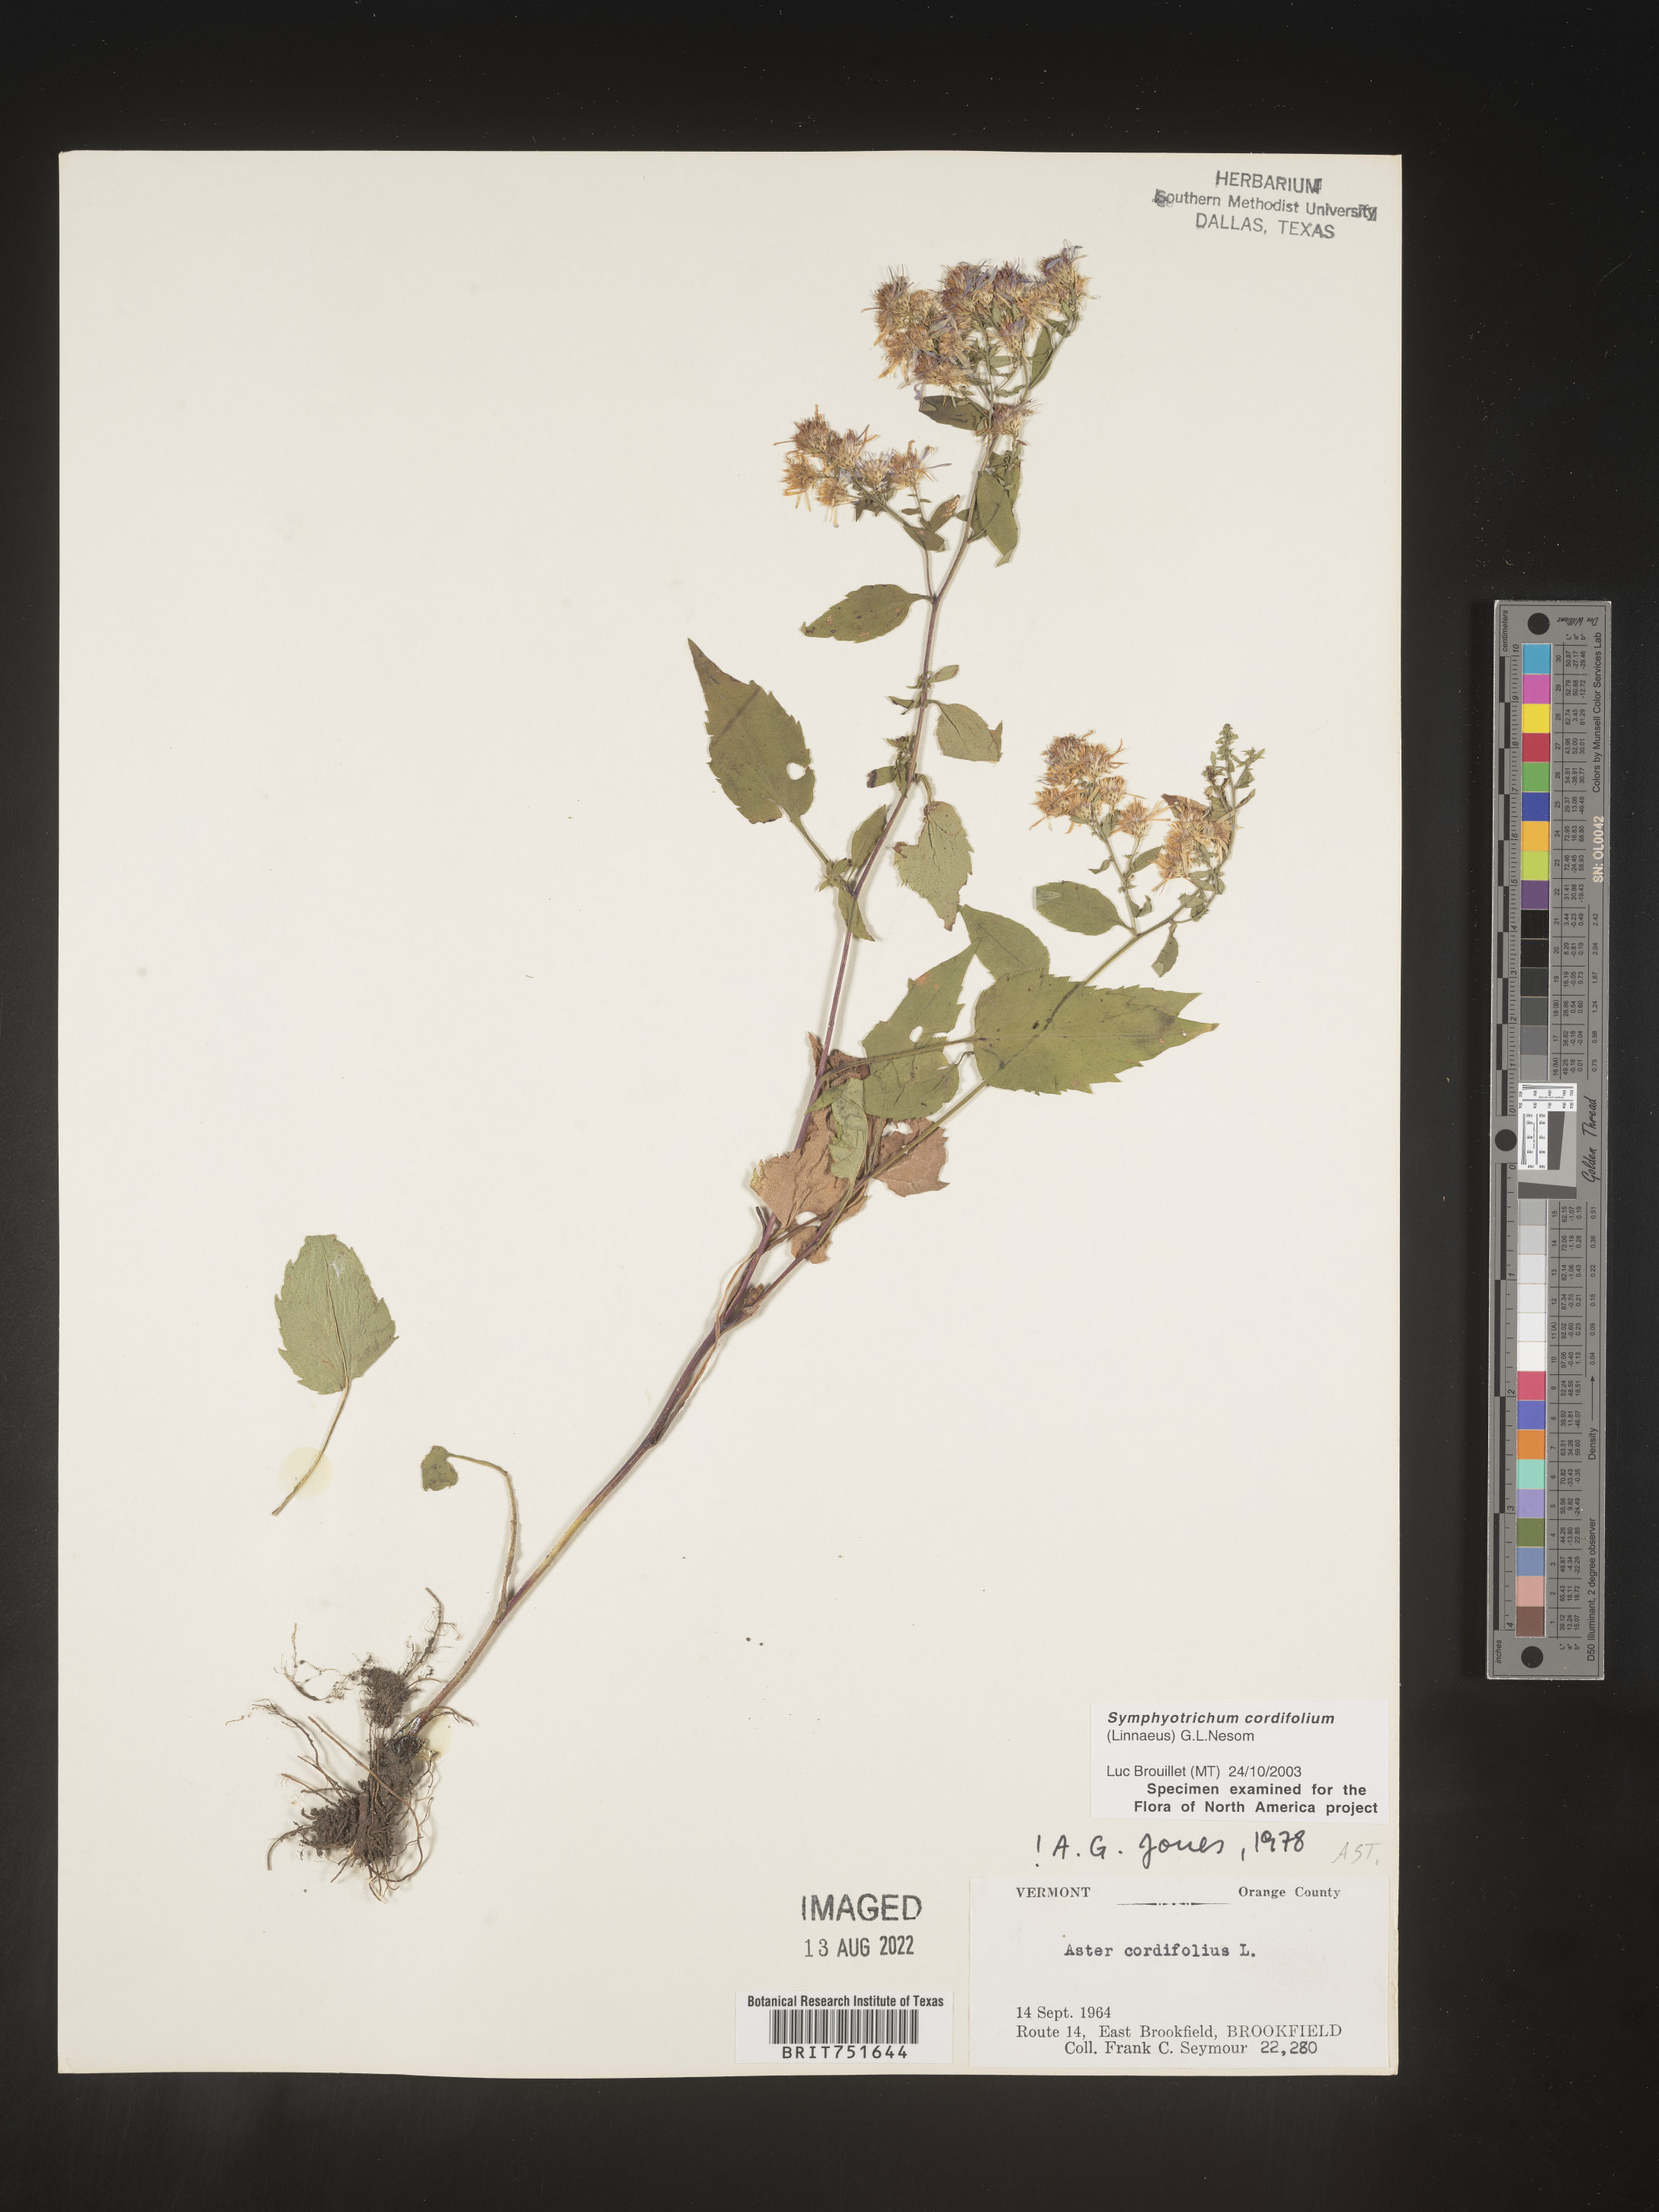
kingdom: Plantae
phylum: Tracheophyta
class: Magnoliopsida
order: Asterales
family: Asteraceae
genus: Symphyotrichum
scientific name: Symphyotrichum cordifolium
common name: Beeweed
